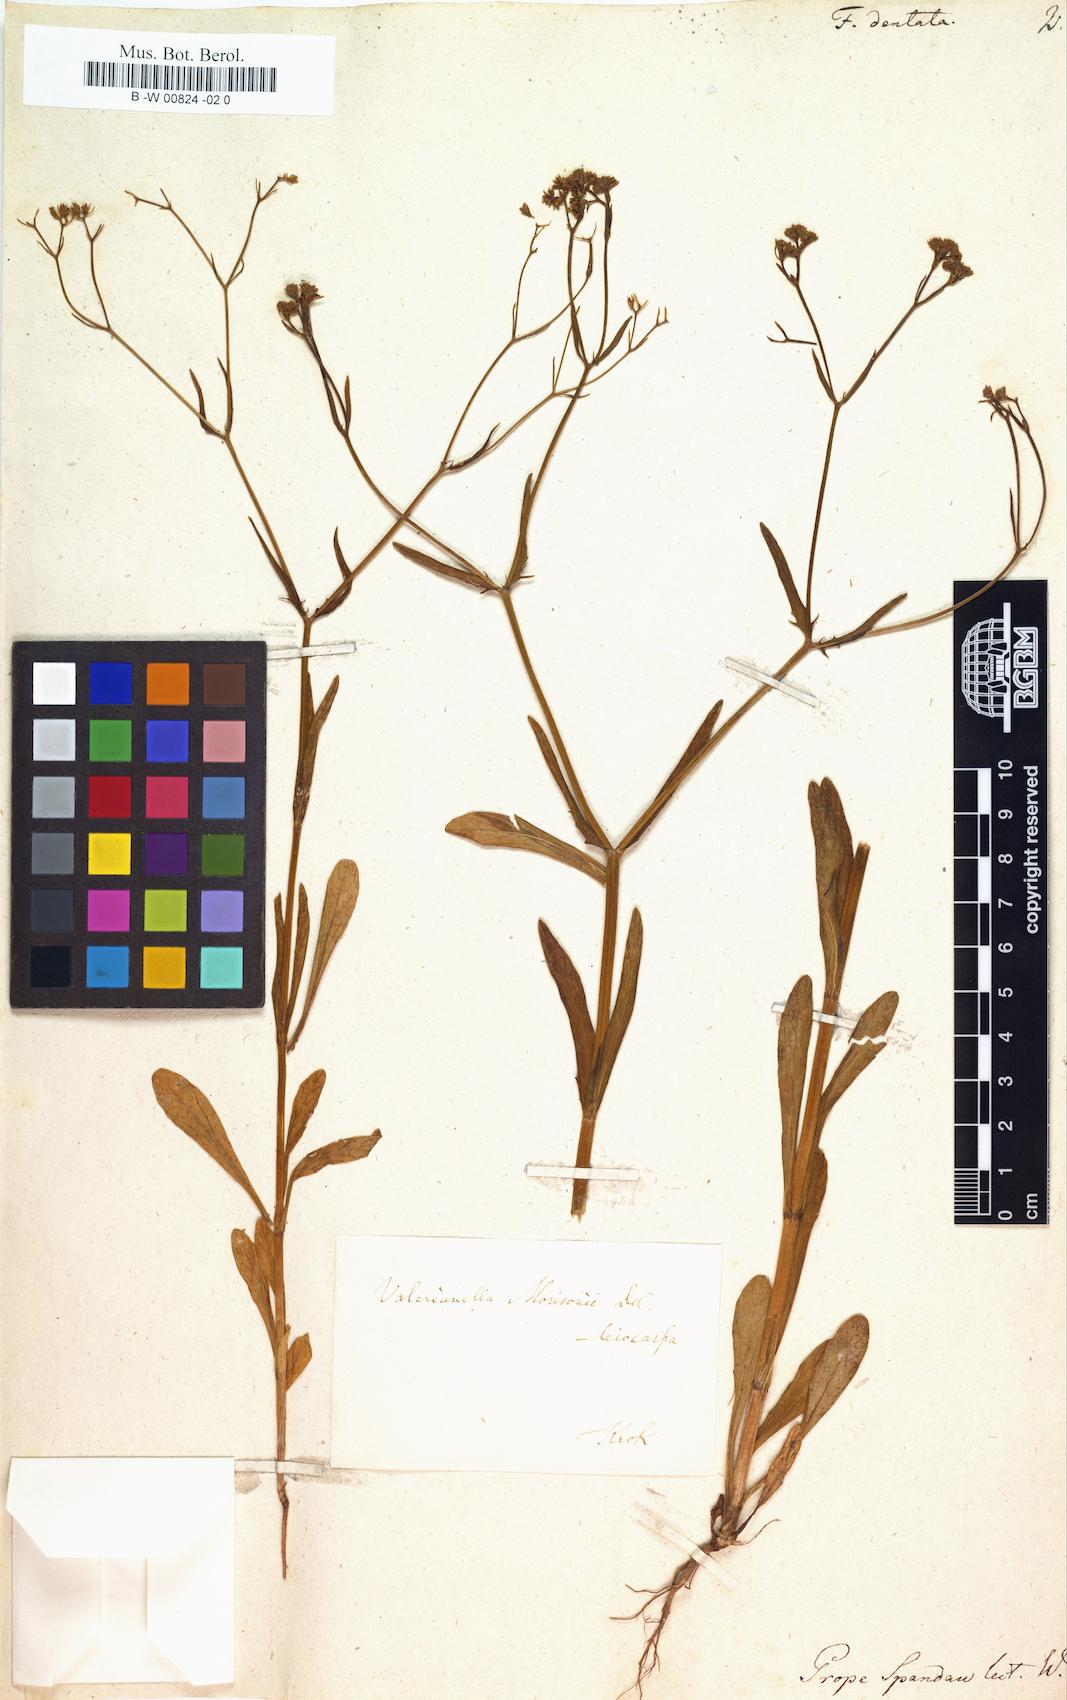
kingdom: Plantae
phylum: Tracheophyta
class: Magnoliopsida
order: Dipsacales
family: Caprifoliaceae
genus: Valerianella
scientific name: Valerianella dentata
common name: Narrow-fruited cornsalad
